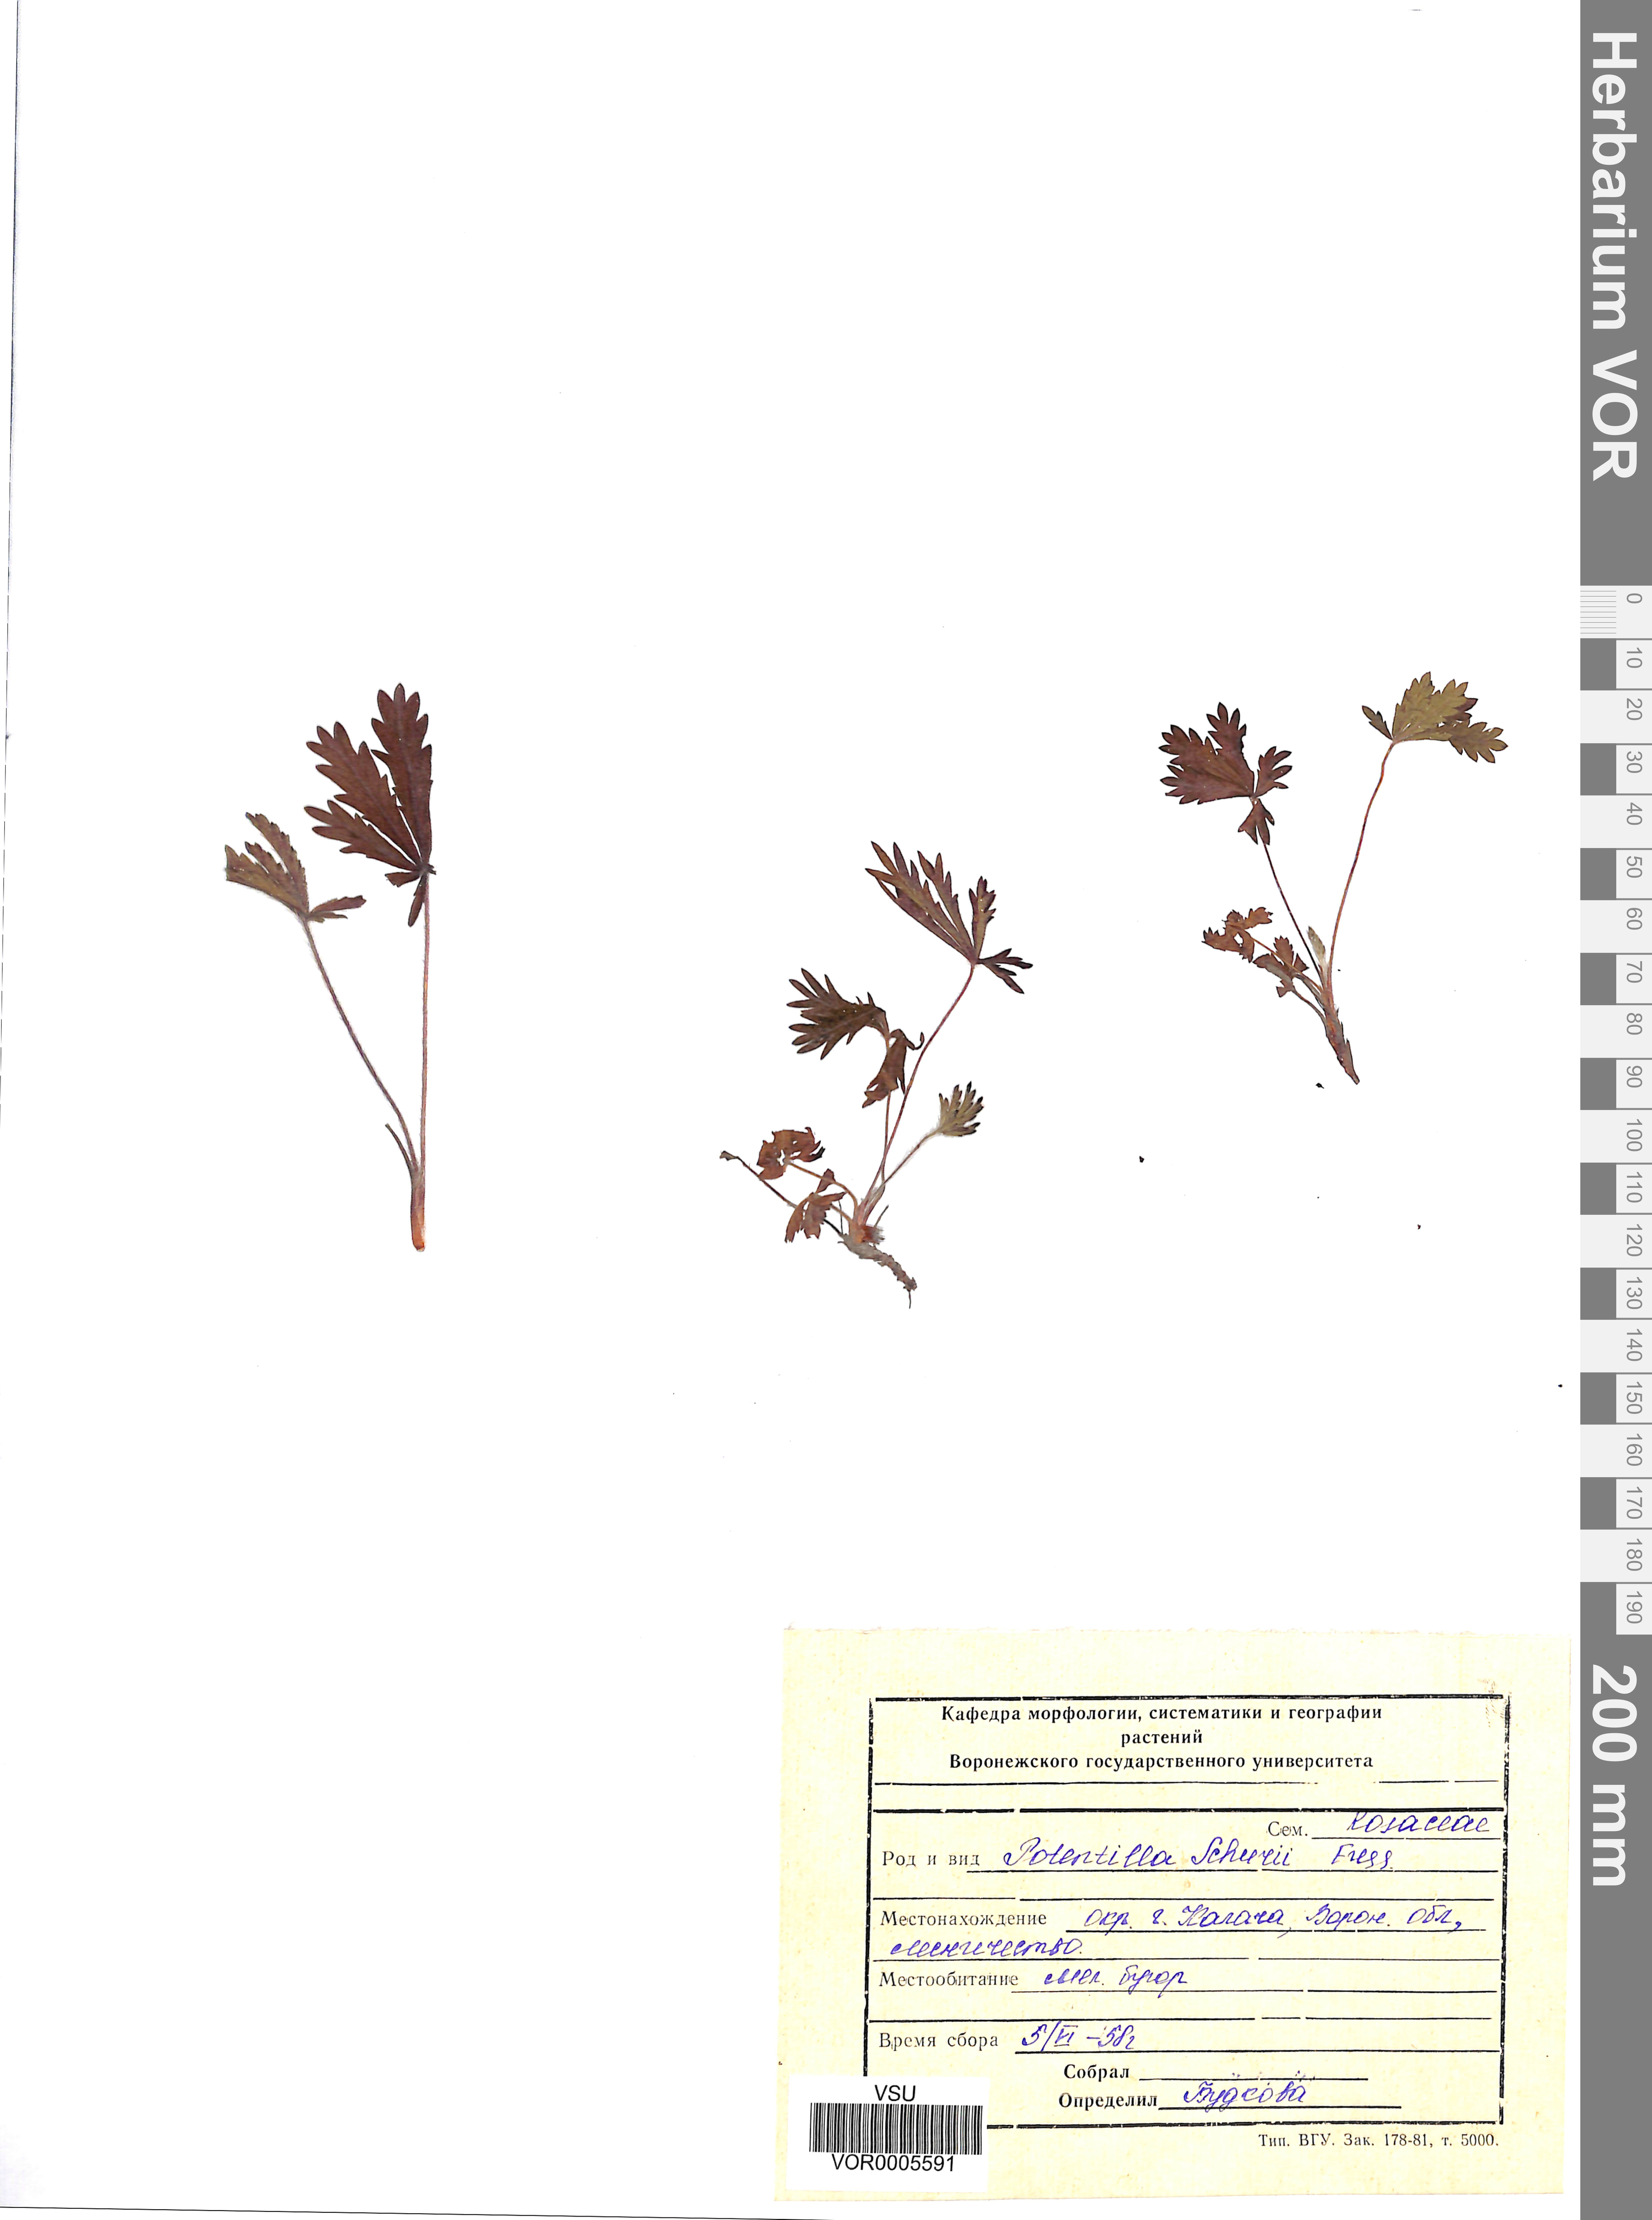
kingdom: Plantae
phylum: Tracheophyta
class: Magnoliopsida
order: Rosales
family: Rosaceae
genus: Potentilla
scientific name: Potentilla patula
